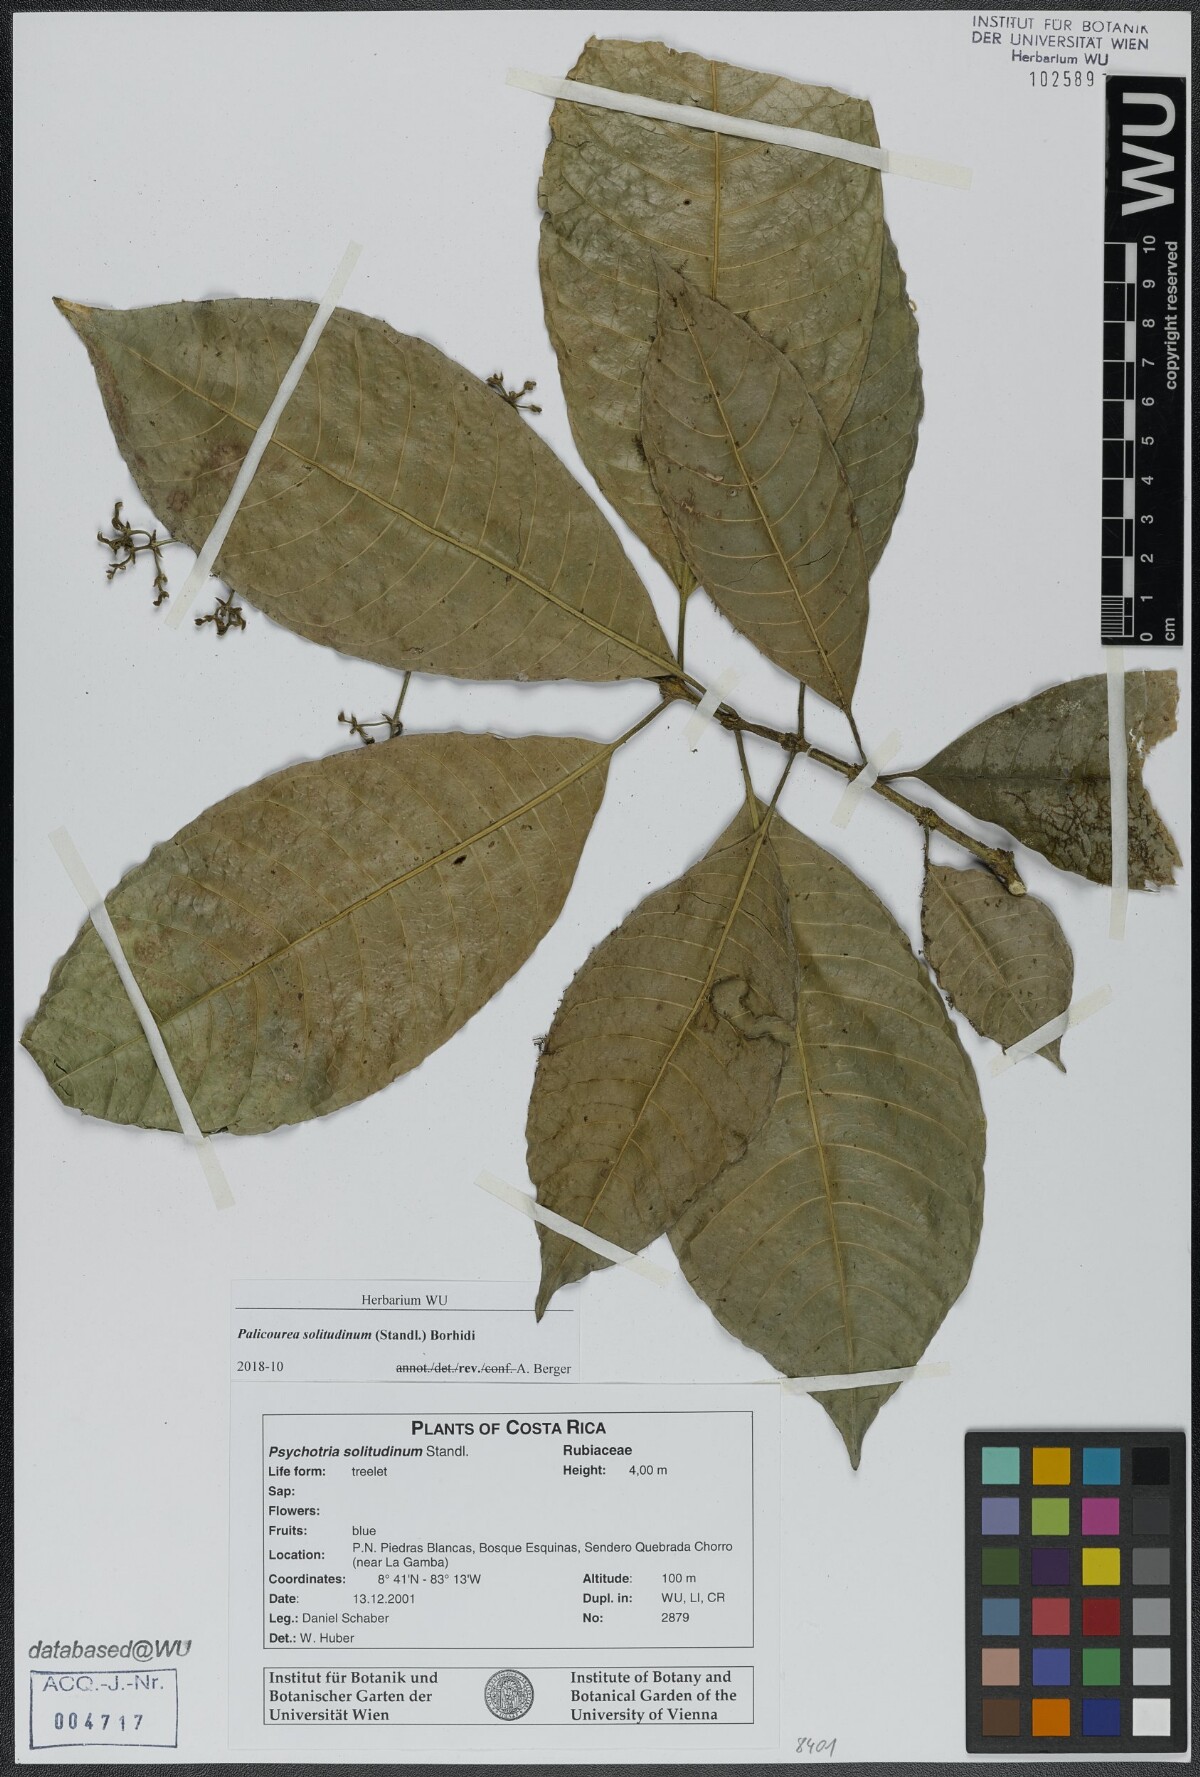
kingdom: Plantae
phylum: Tracheophyta
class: Magnoliopsida
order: Gentianales
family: Rubiaceae
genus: Palicourea
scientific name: Palicourea solitudinum
